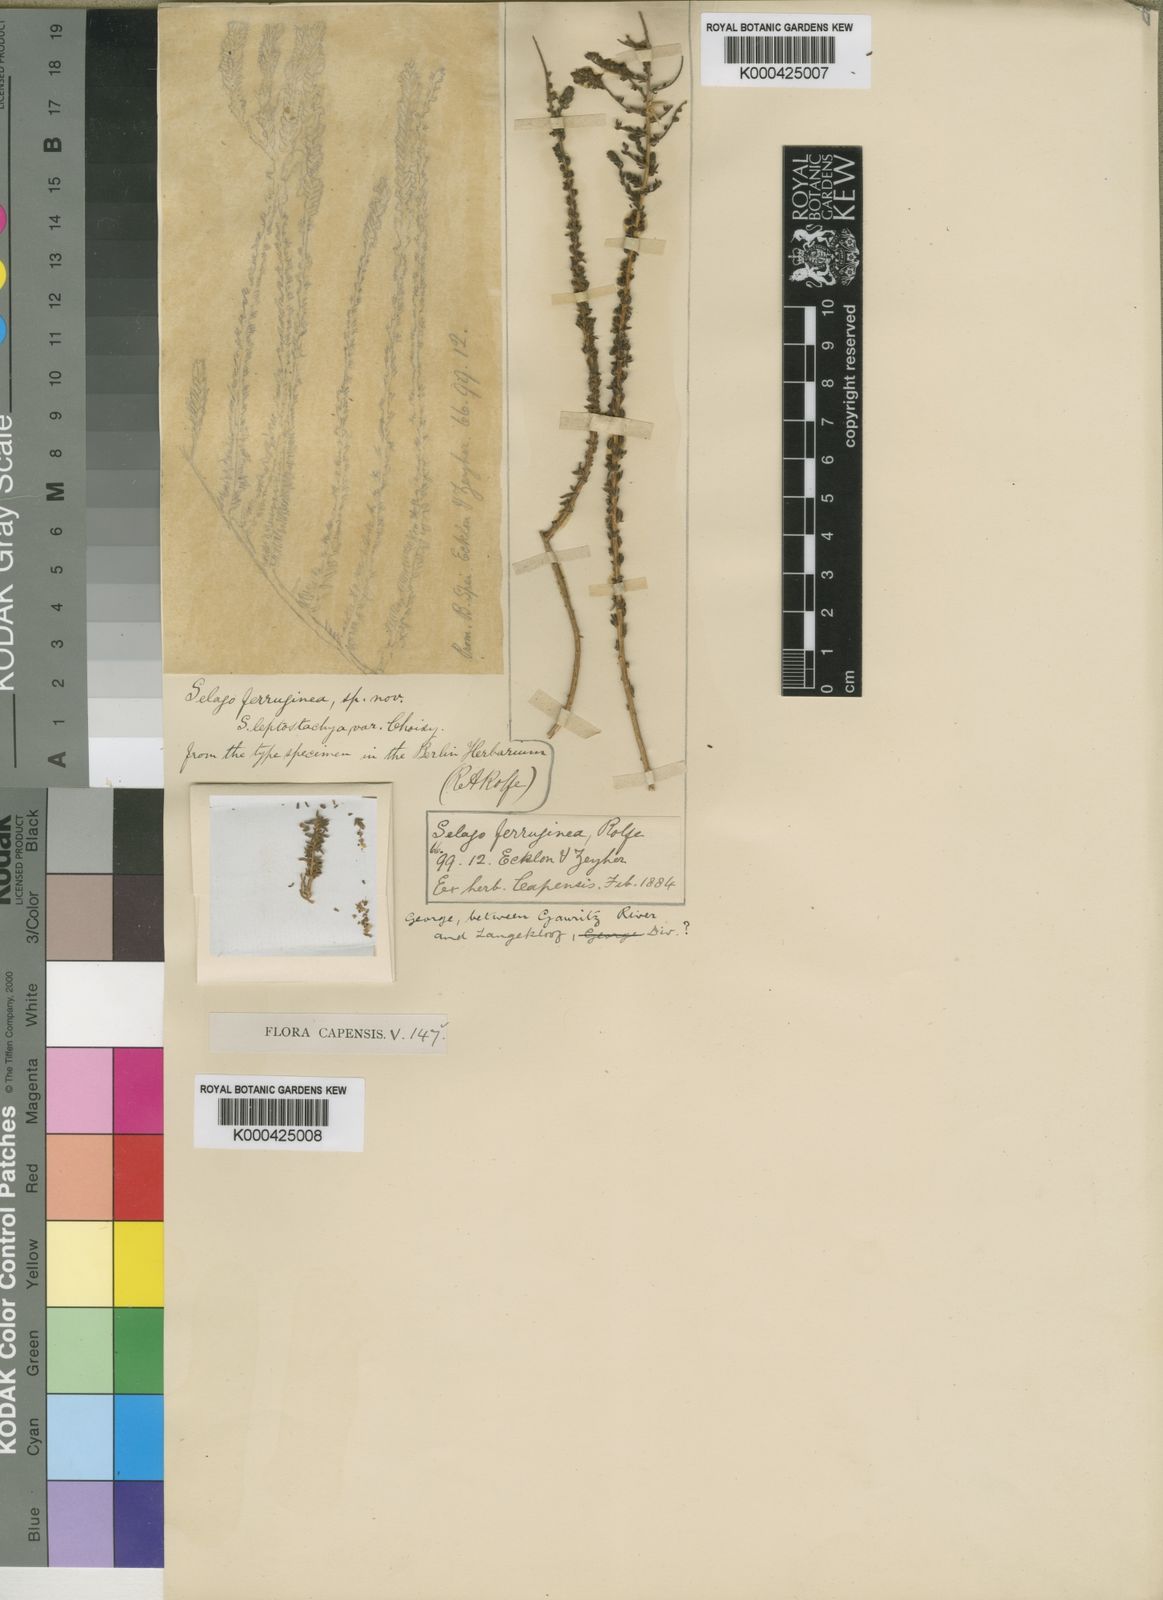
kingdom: Plantae
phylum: Tracheophyta
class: Magnoliopsida
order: Lamiales
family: Scrophulariaceae
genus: Selago
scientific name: Selago ferruginea
